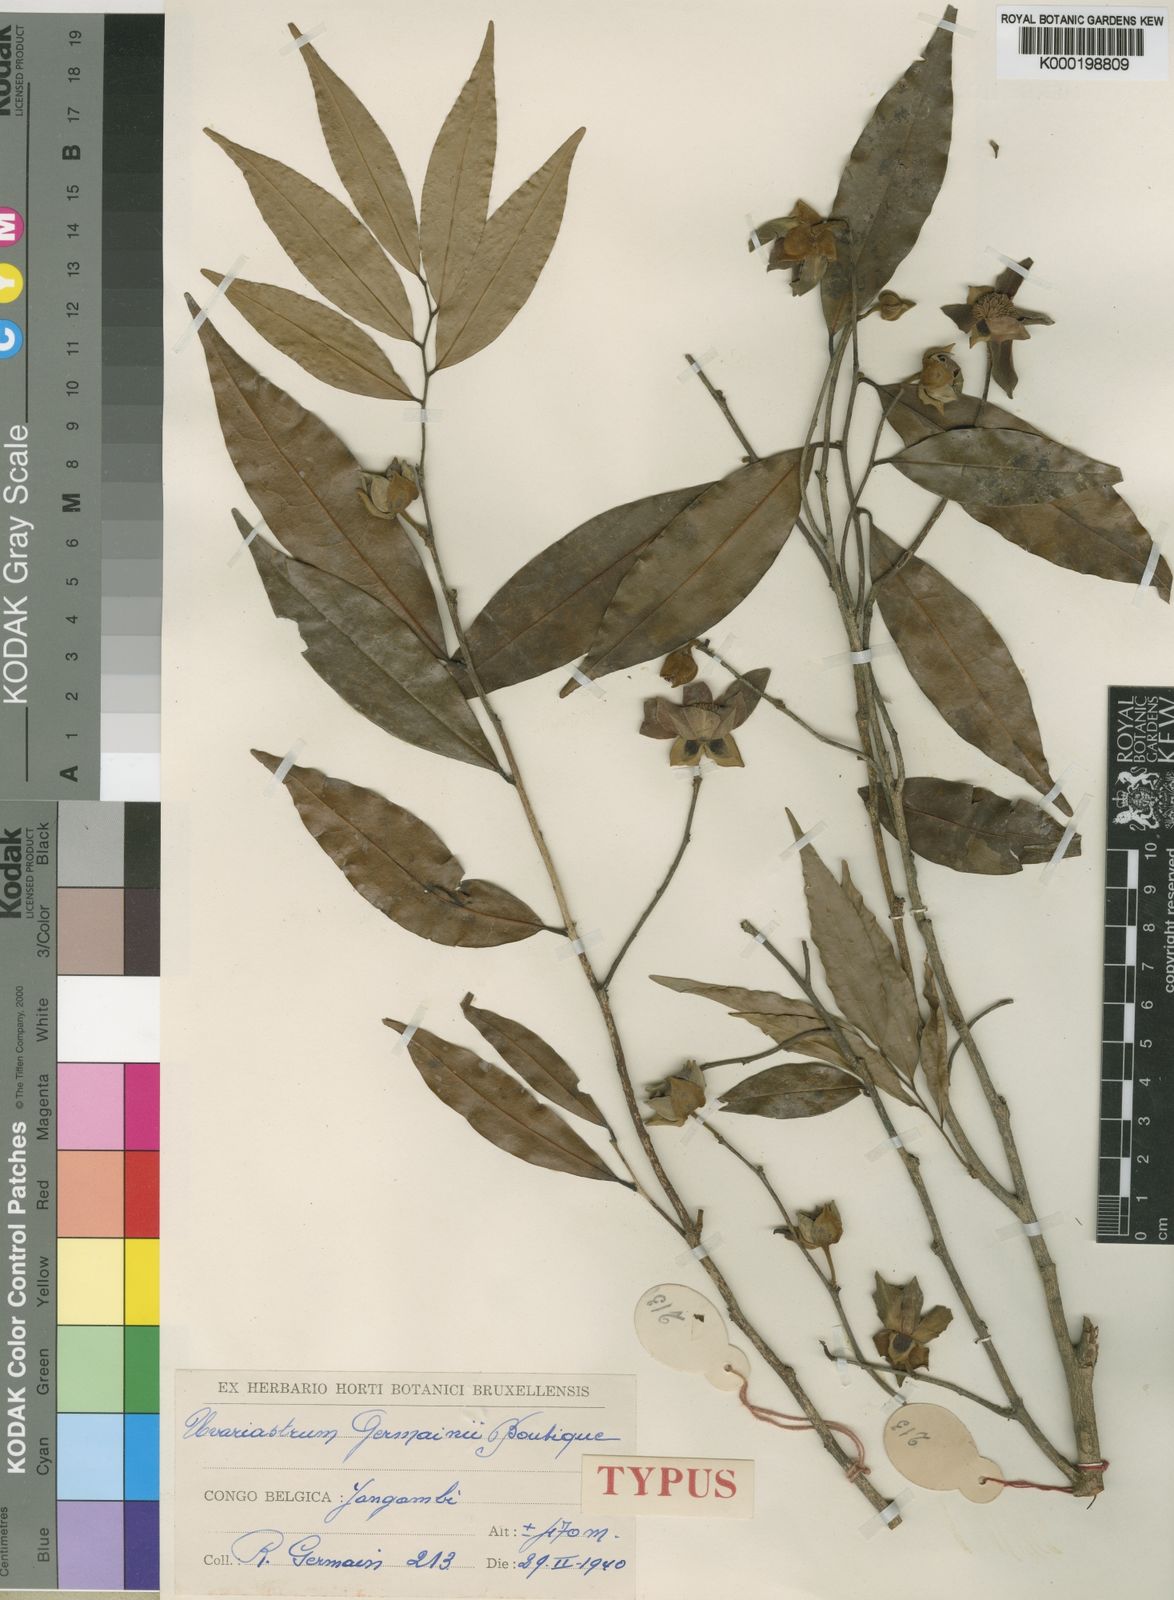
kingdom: Plantae
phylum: Tracheophyta
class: Magnoliopsida
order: Magnoliales
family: Annonaceae
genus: Uvariastrum
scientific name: Uvariastrum germainii
